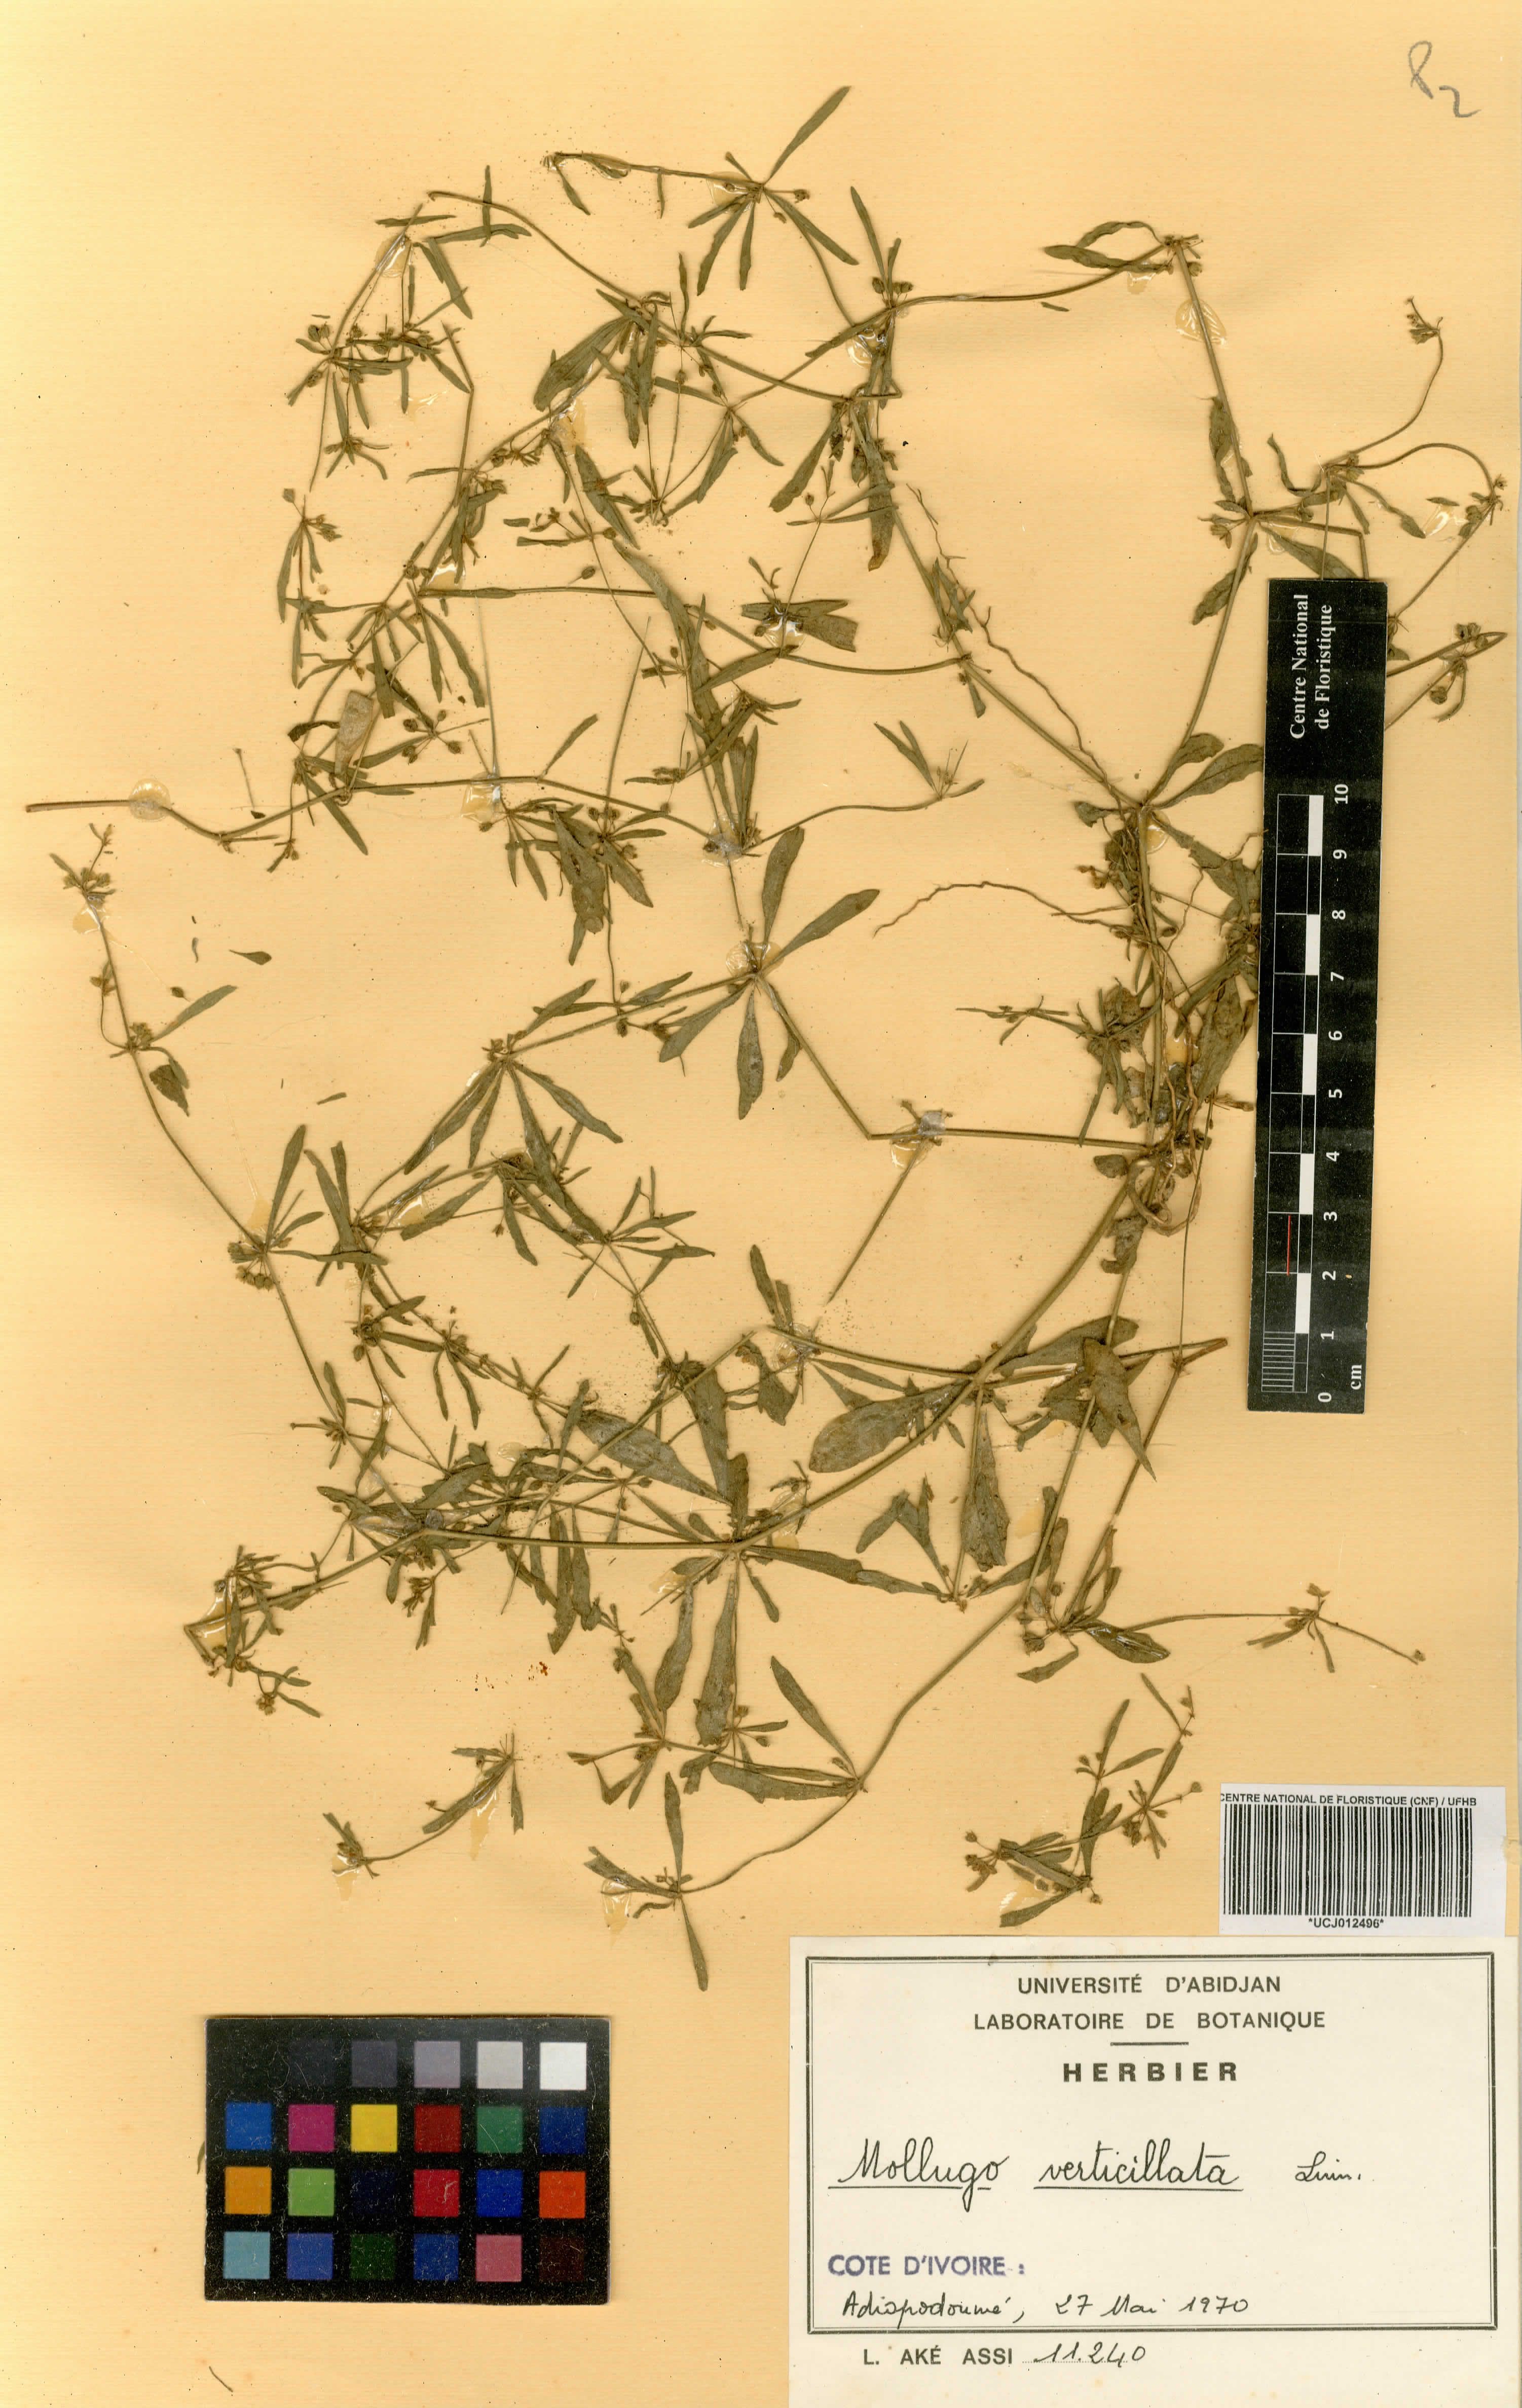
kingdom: Plantae
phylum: Tracheophyta
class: Magnoliopsida
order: Caryophyllales
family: Molluginaceae
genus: Mollugo
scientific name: Mollugo verticillata
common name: Green carpetweed
